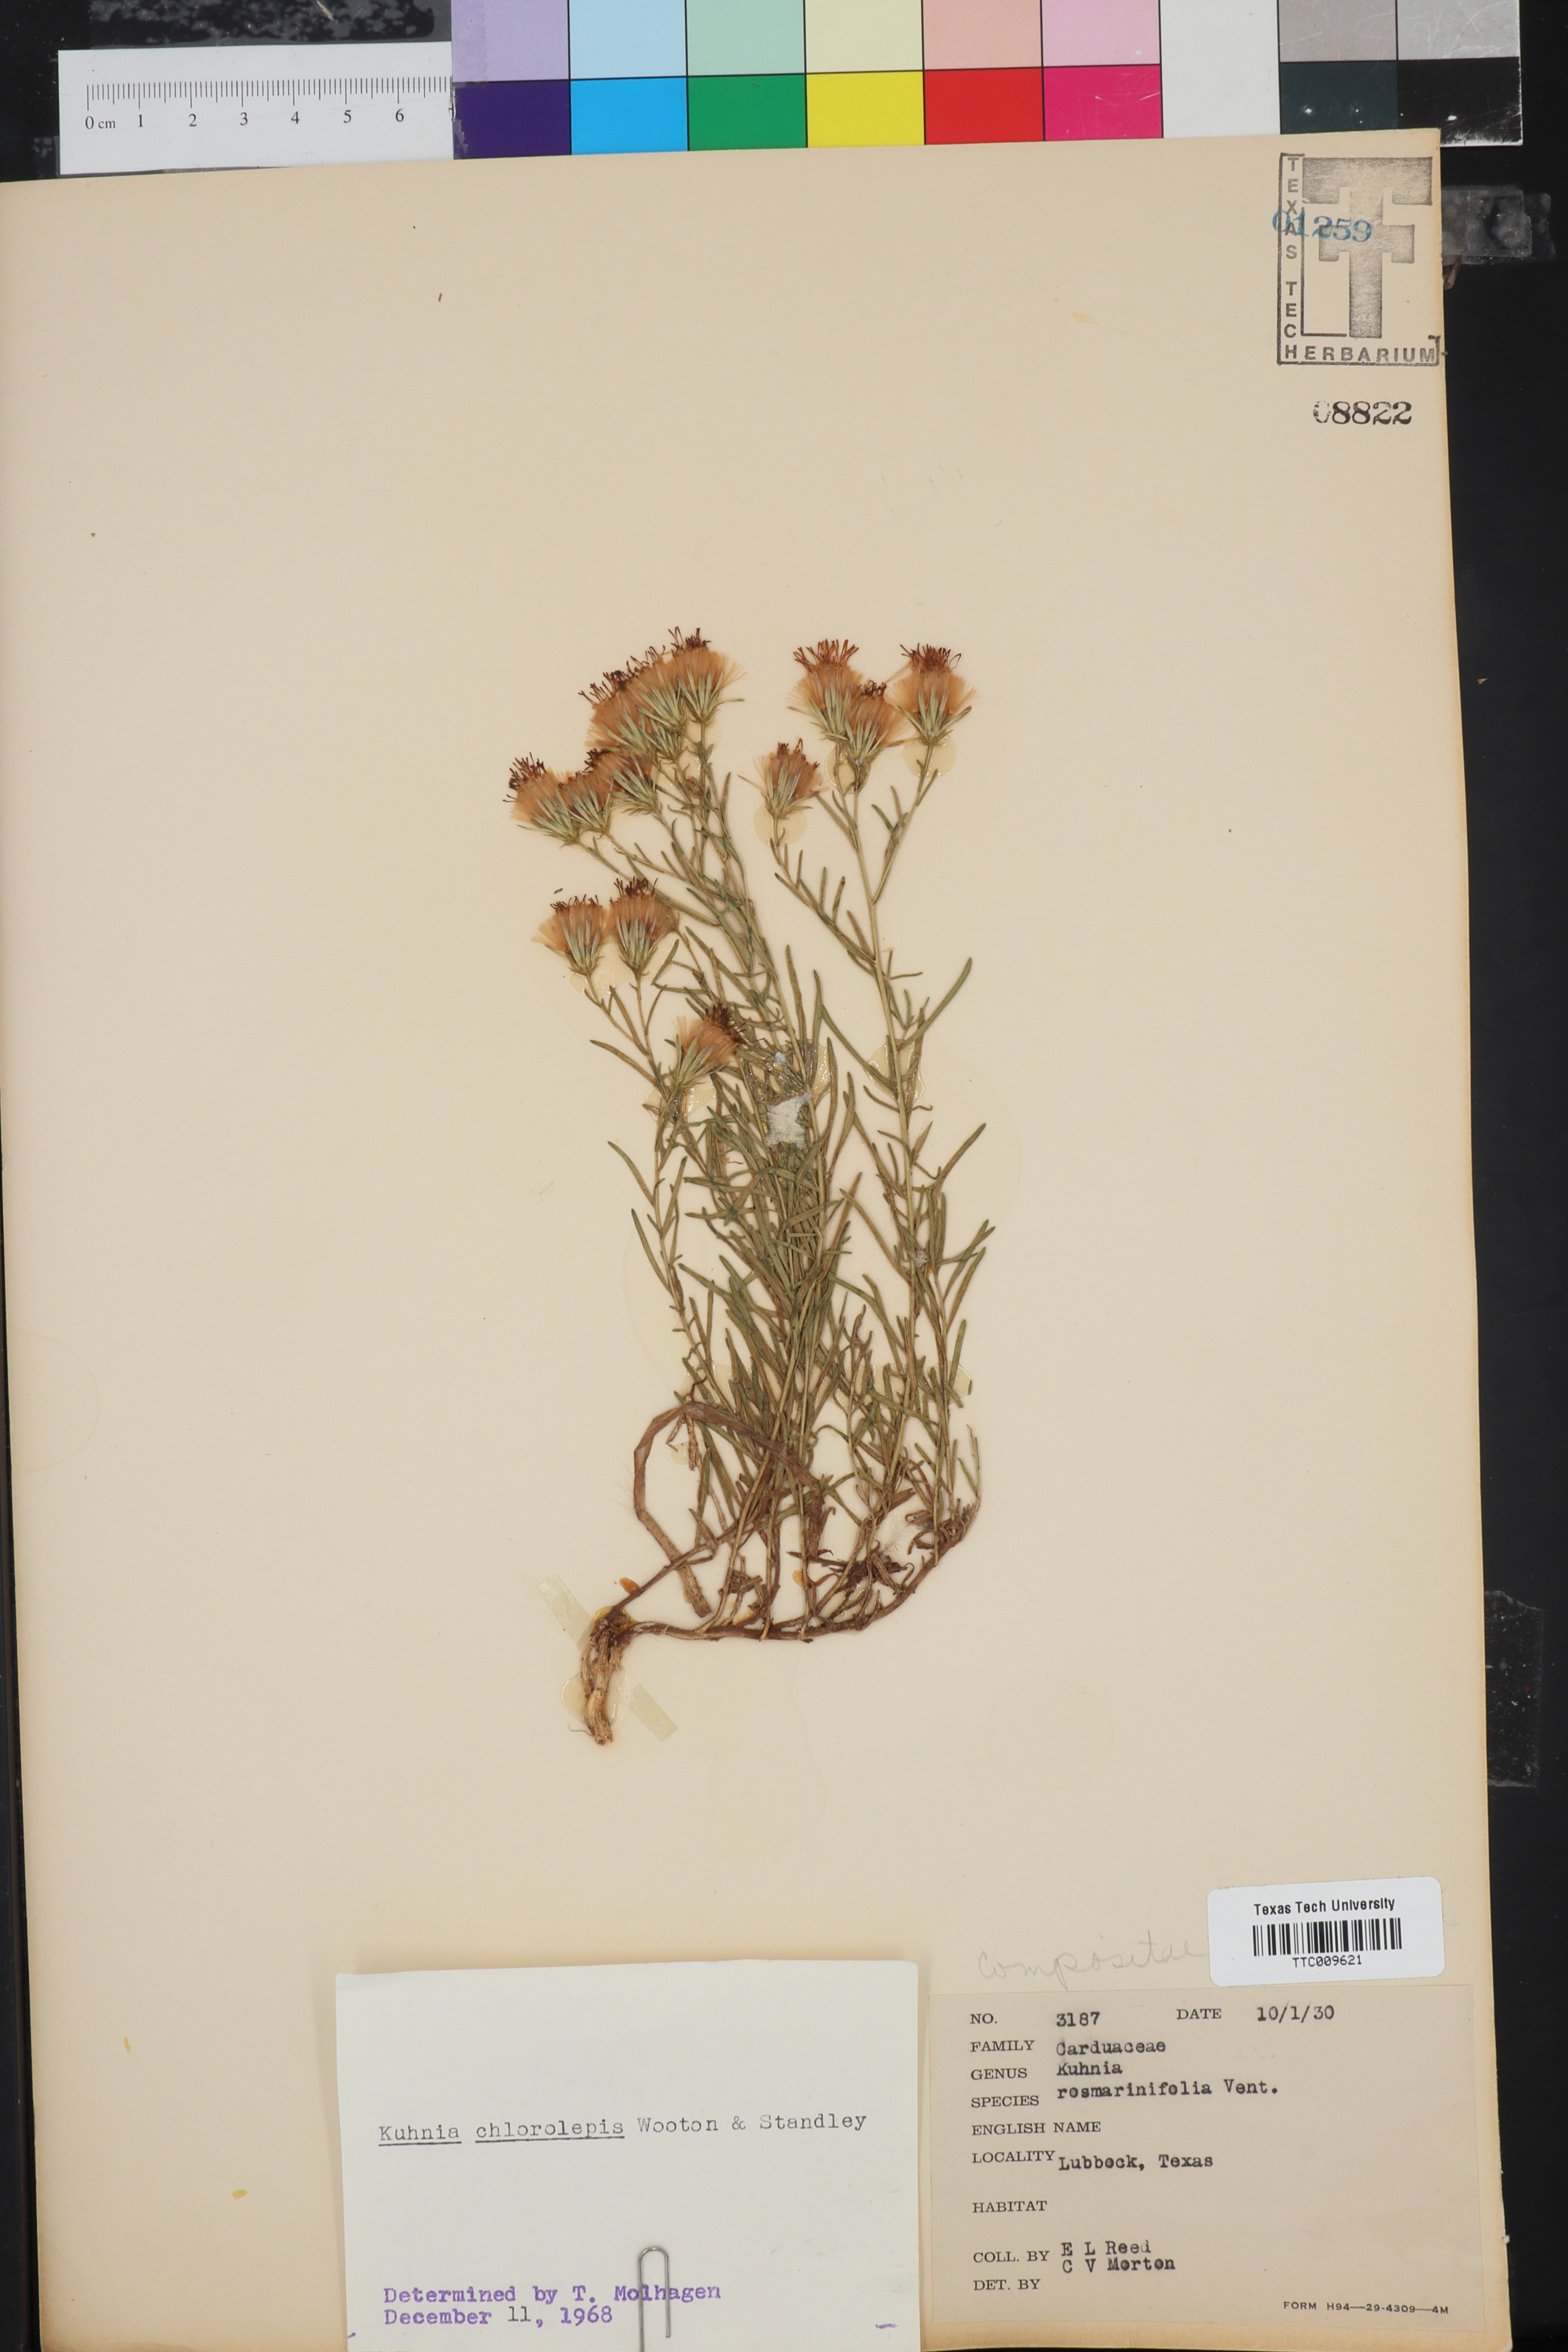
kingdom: Plantae
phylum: Tracheophyta
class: Magnoliopsida
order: Asterales
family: Asteraceae
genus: Brickellia
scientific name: Brickellia leptophylla
